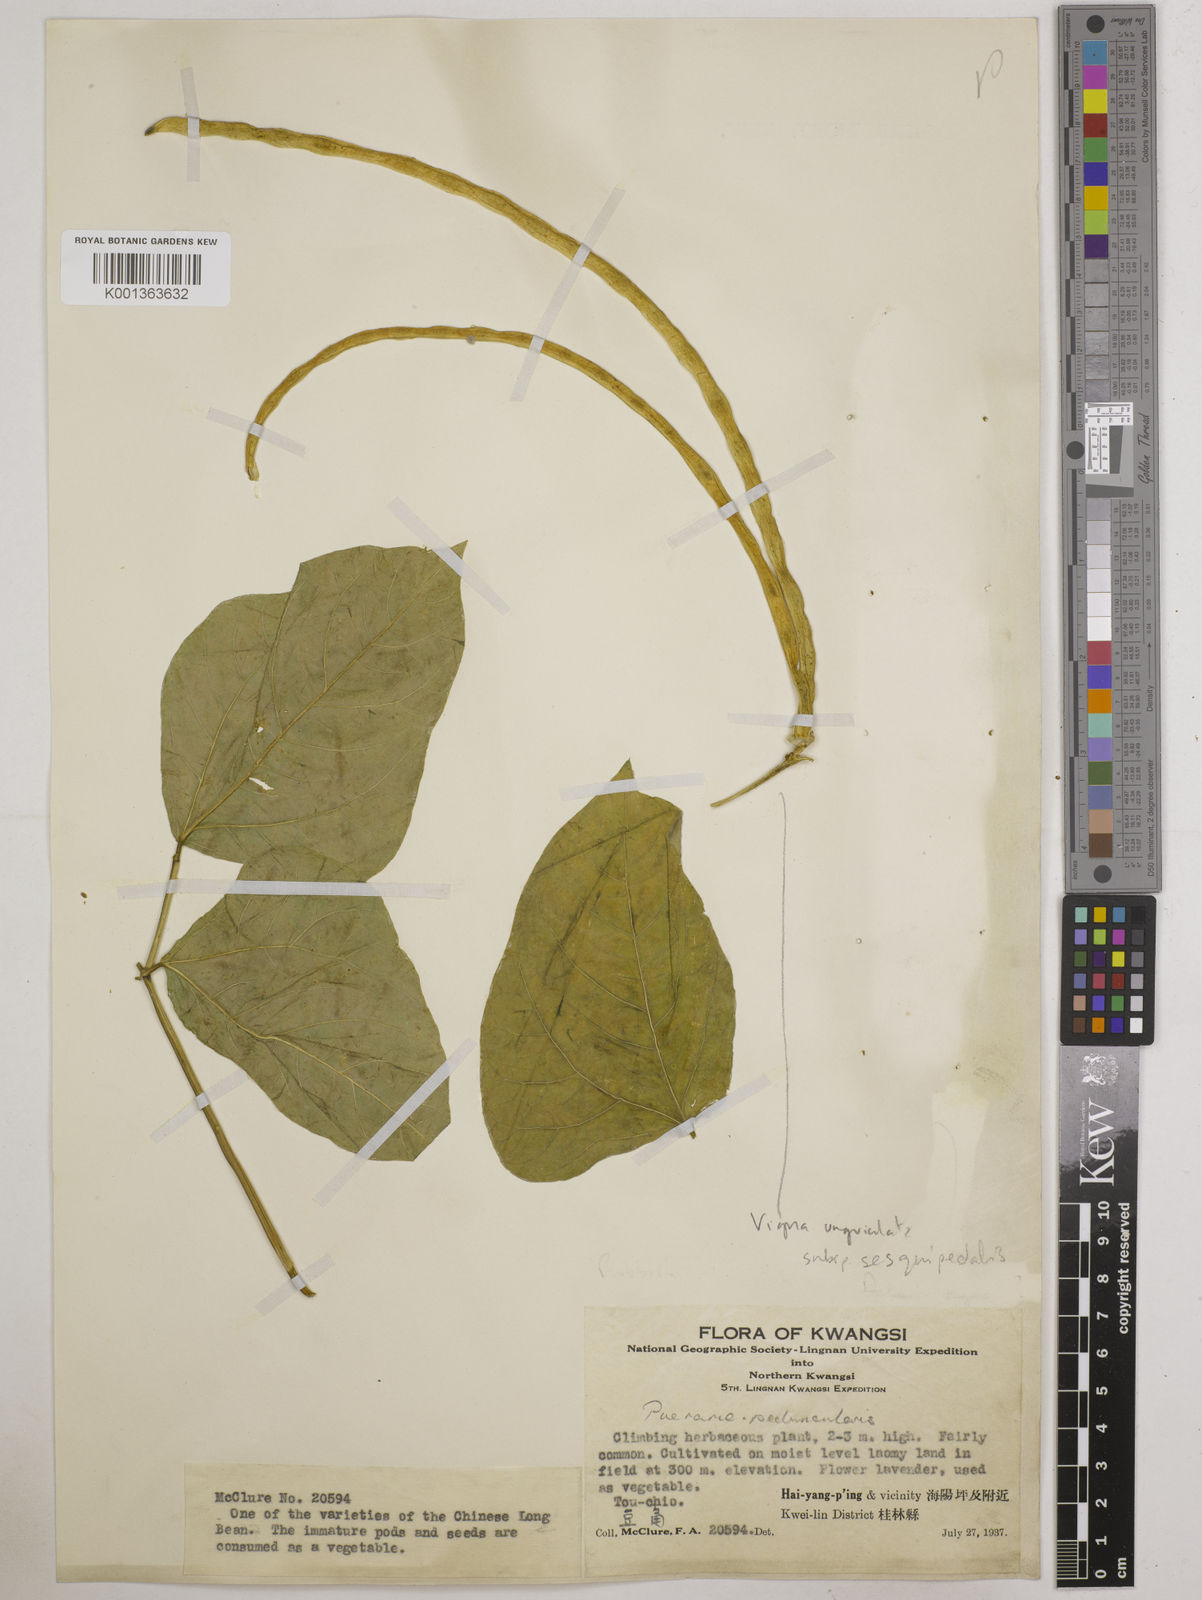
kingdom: Plantae
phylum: Tracheophyta
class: Magnoliopsida
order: Fabales
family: Fabaceae
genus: Vigna
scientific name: Vigna unguiculata
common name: Cowpea
